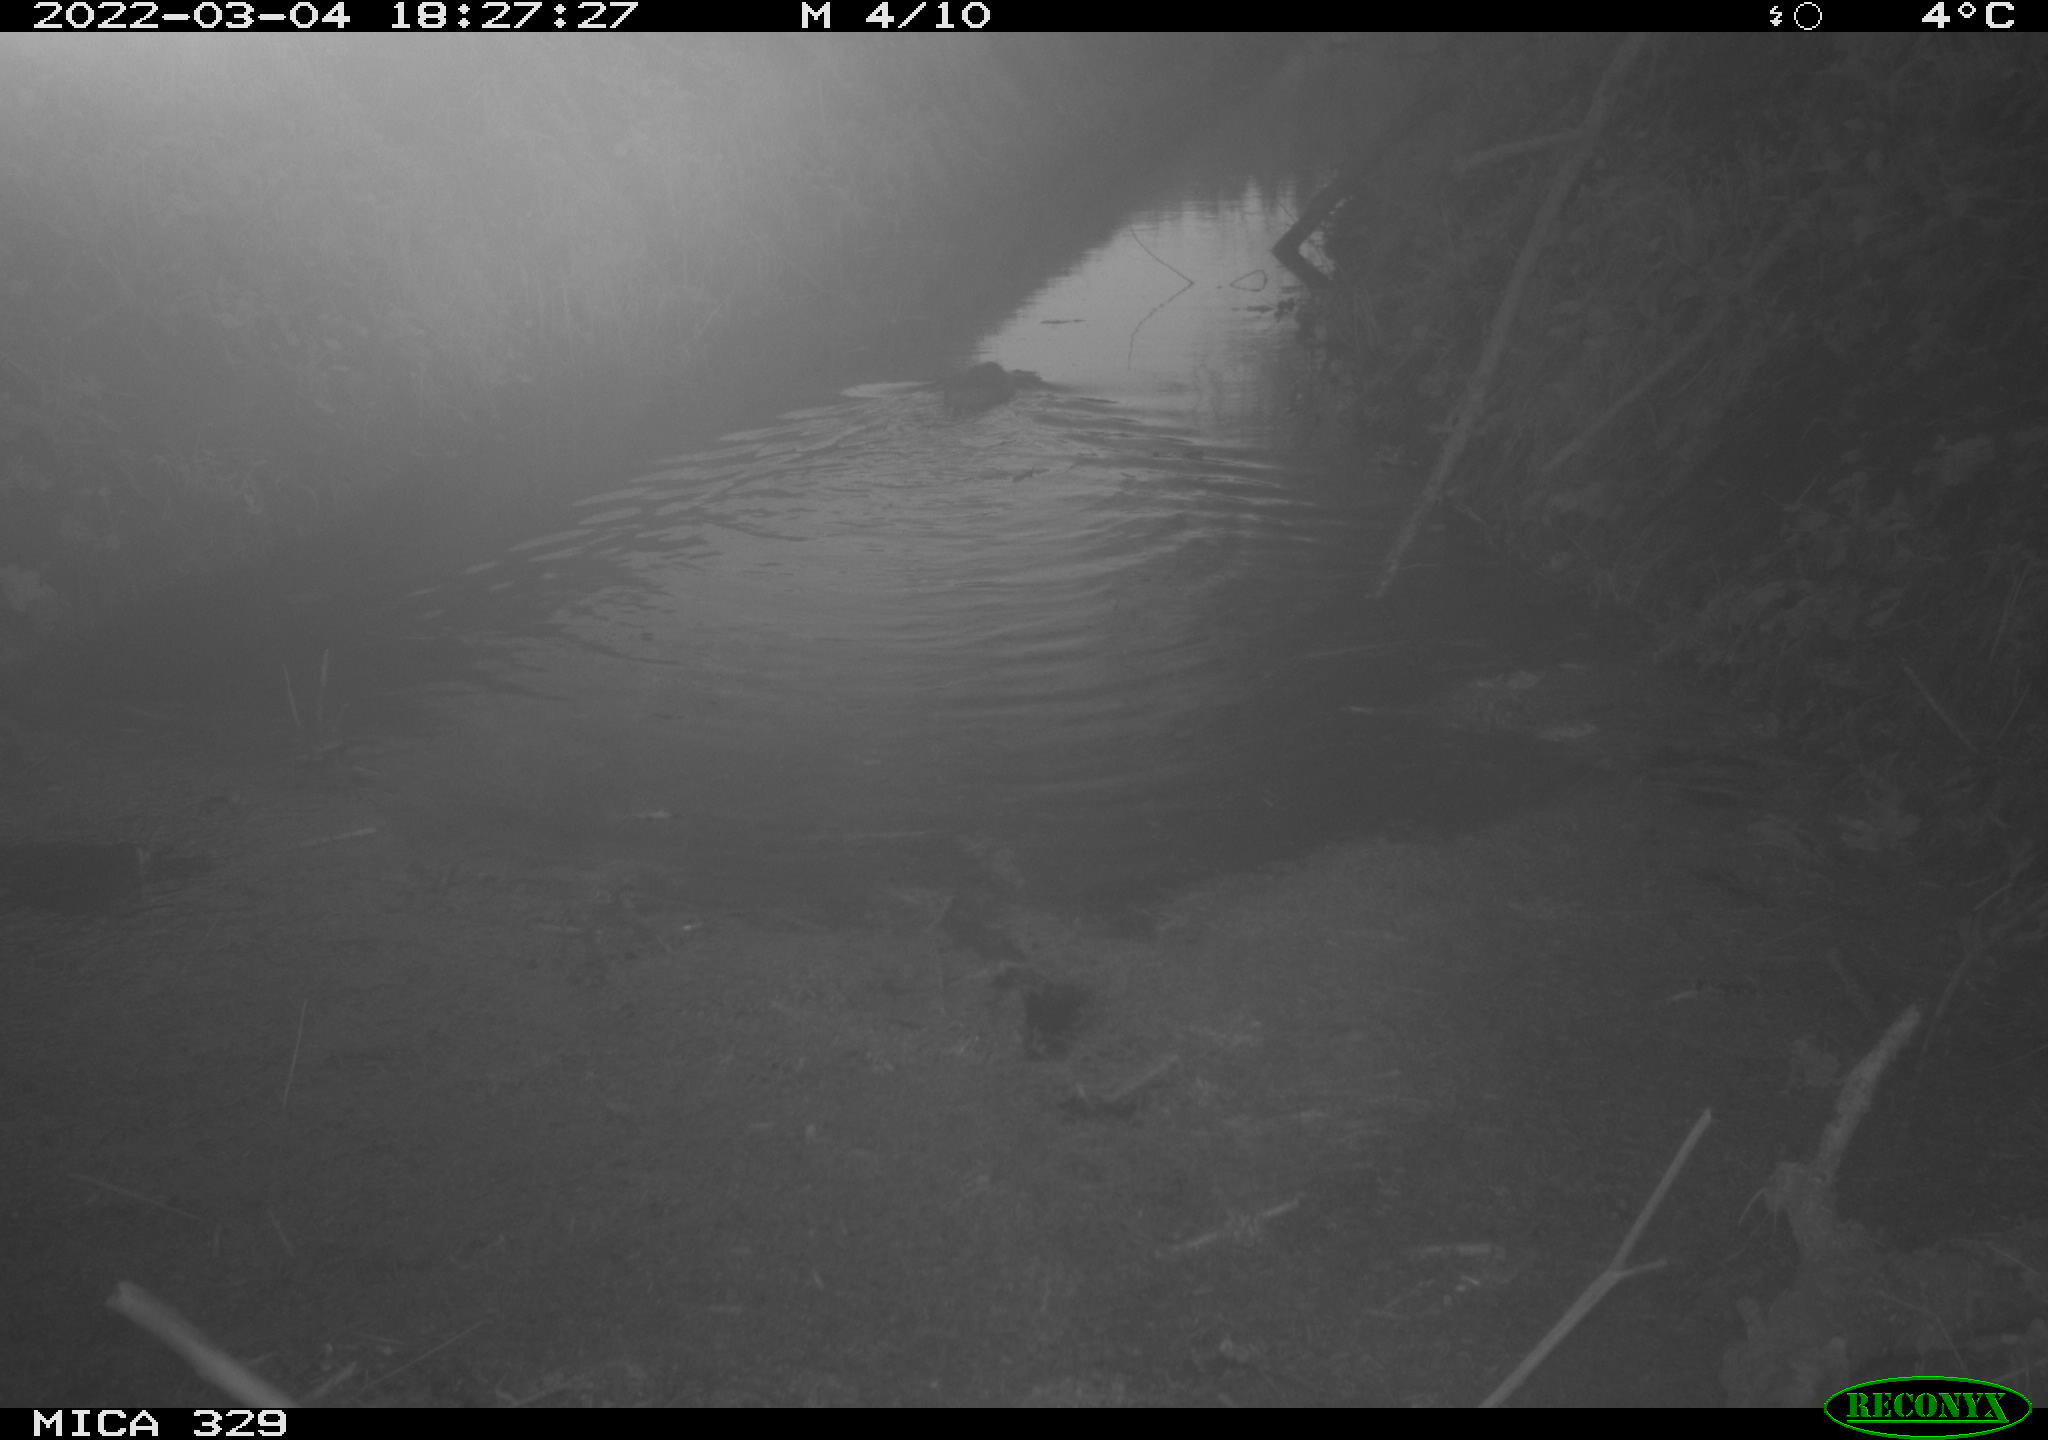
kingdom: Animalia
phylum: Chordata
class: Mammalia
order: Rodentia
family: Cricetidae
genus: Ondatra
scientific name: Ondatra zibethicus
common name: Muskrat
